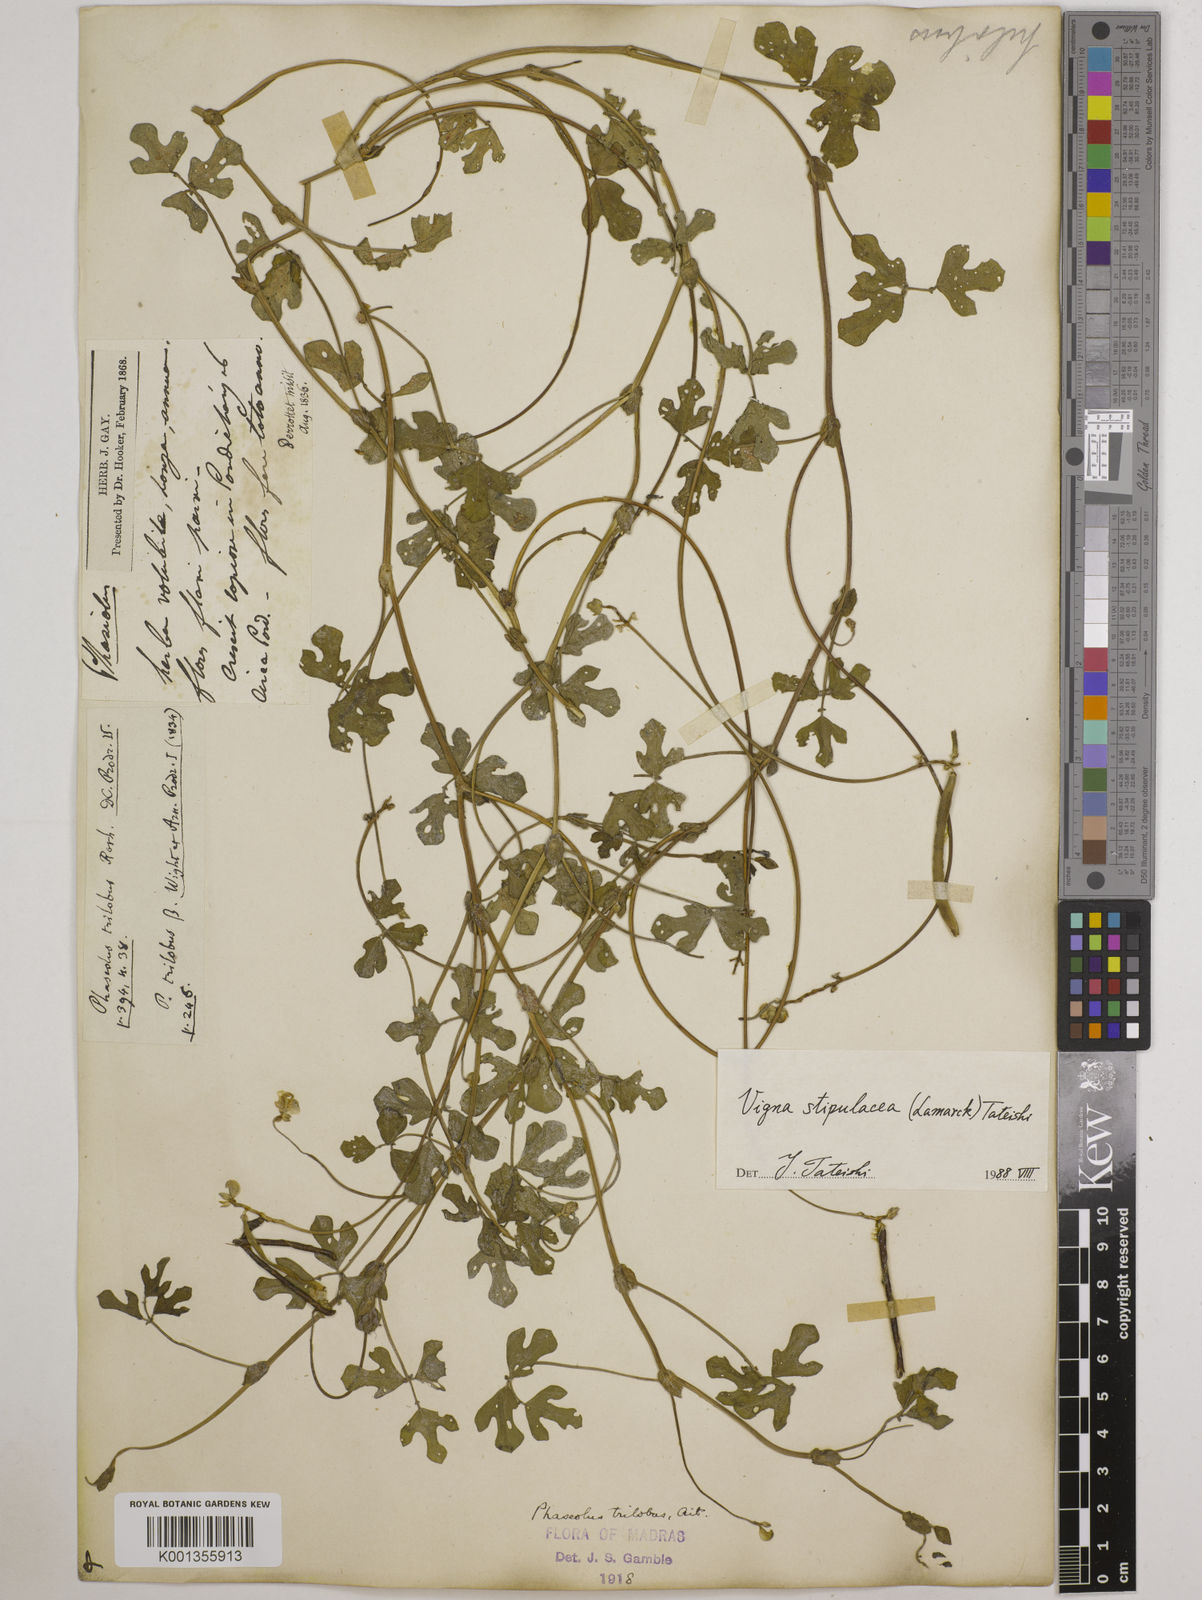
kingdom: Plantae
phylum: Tracheophyta
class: Magnoliopsida
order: Fabales
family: Fabaceae
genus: Pueraria
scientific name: Pueraria montana
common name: Kudzu
